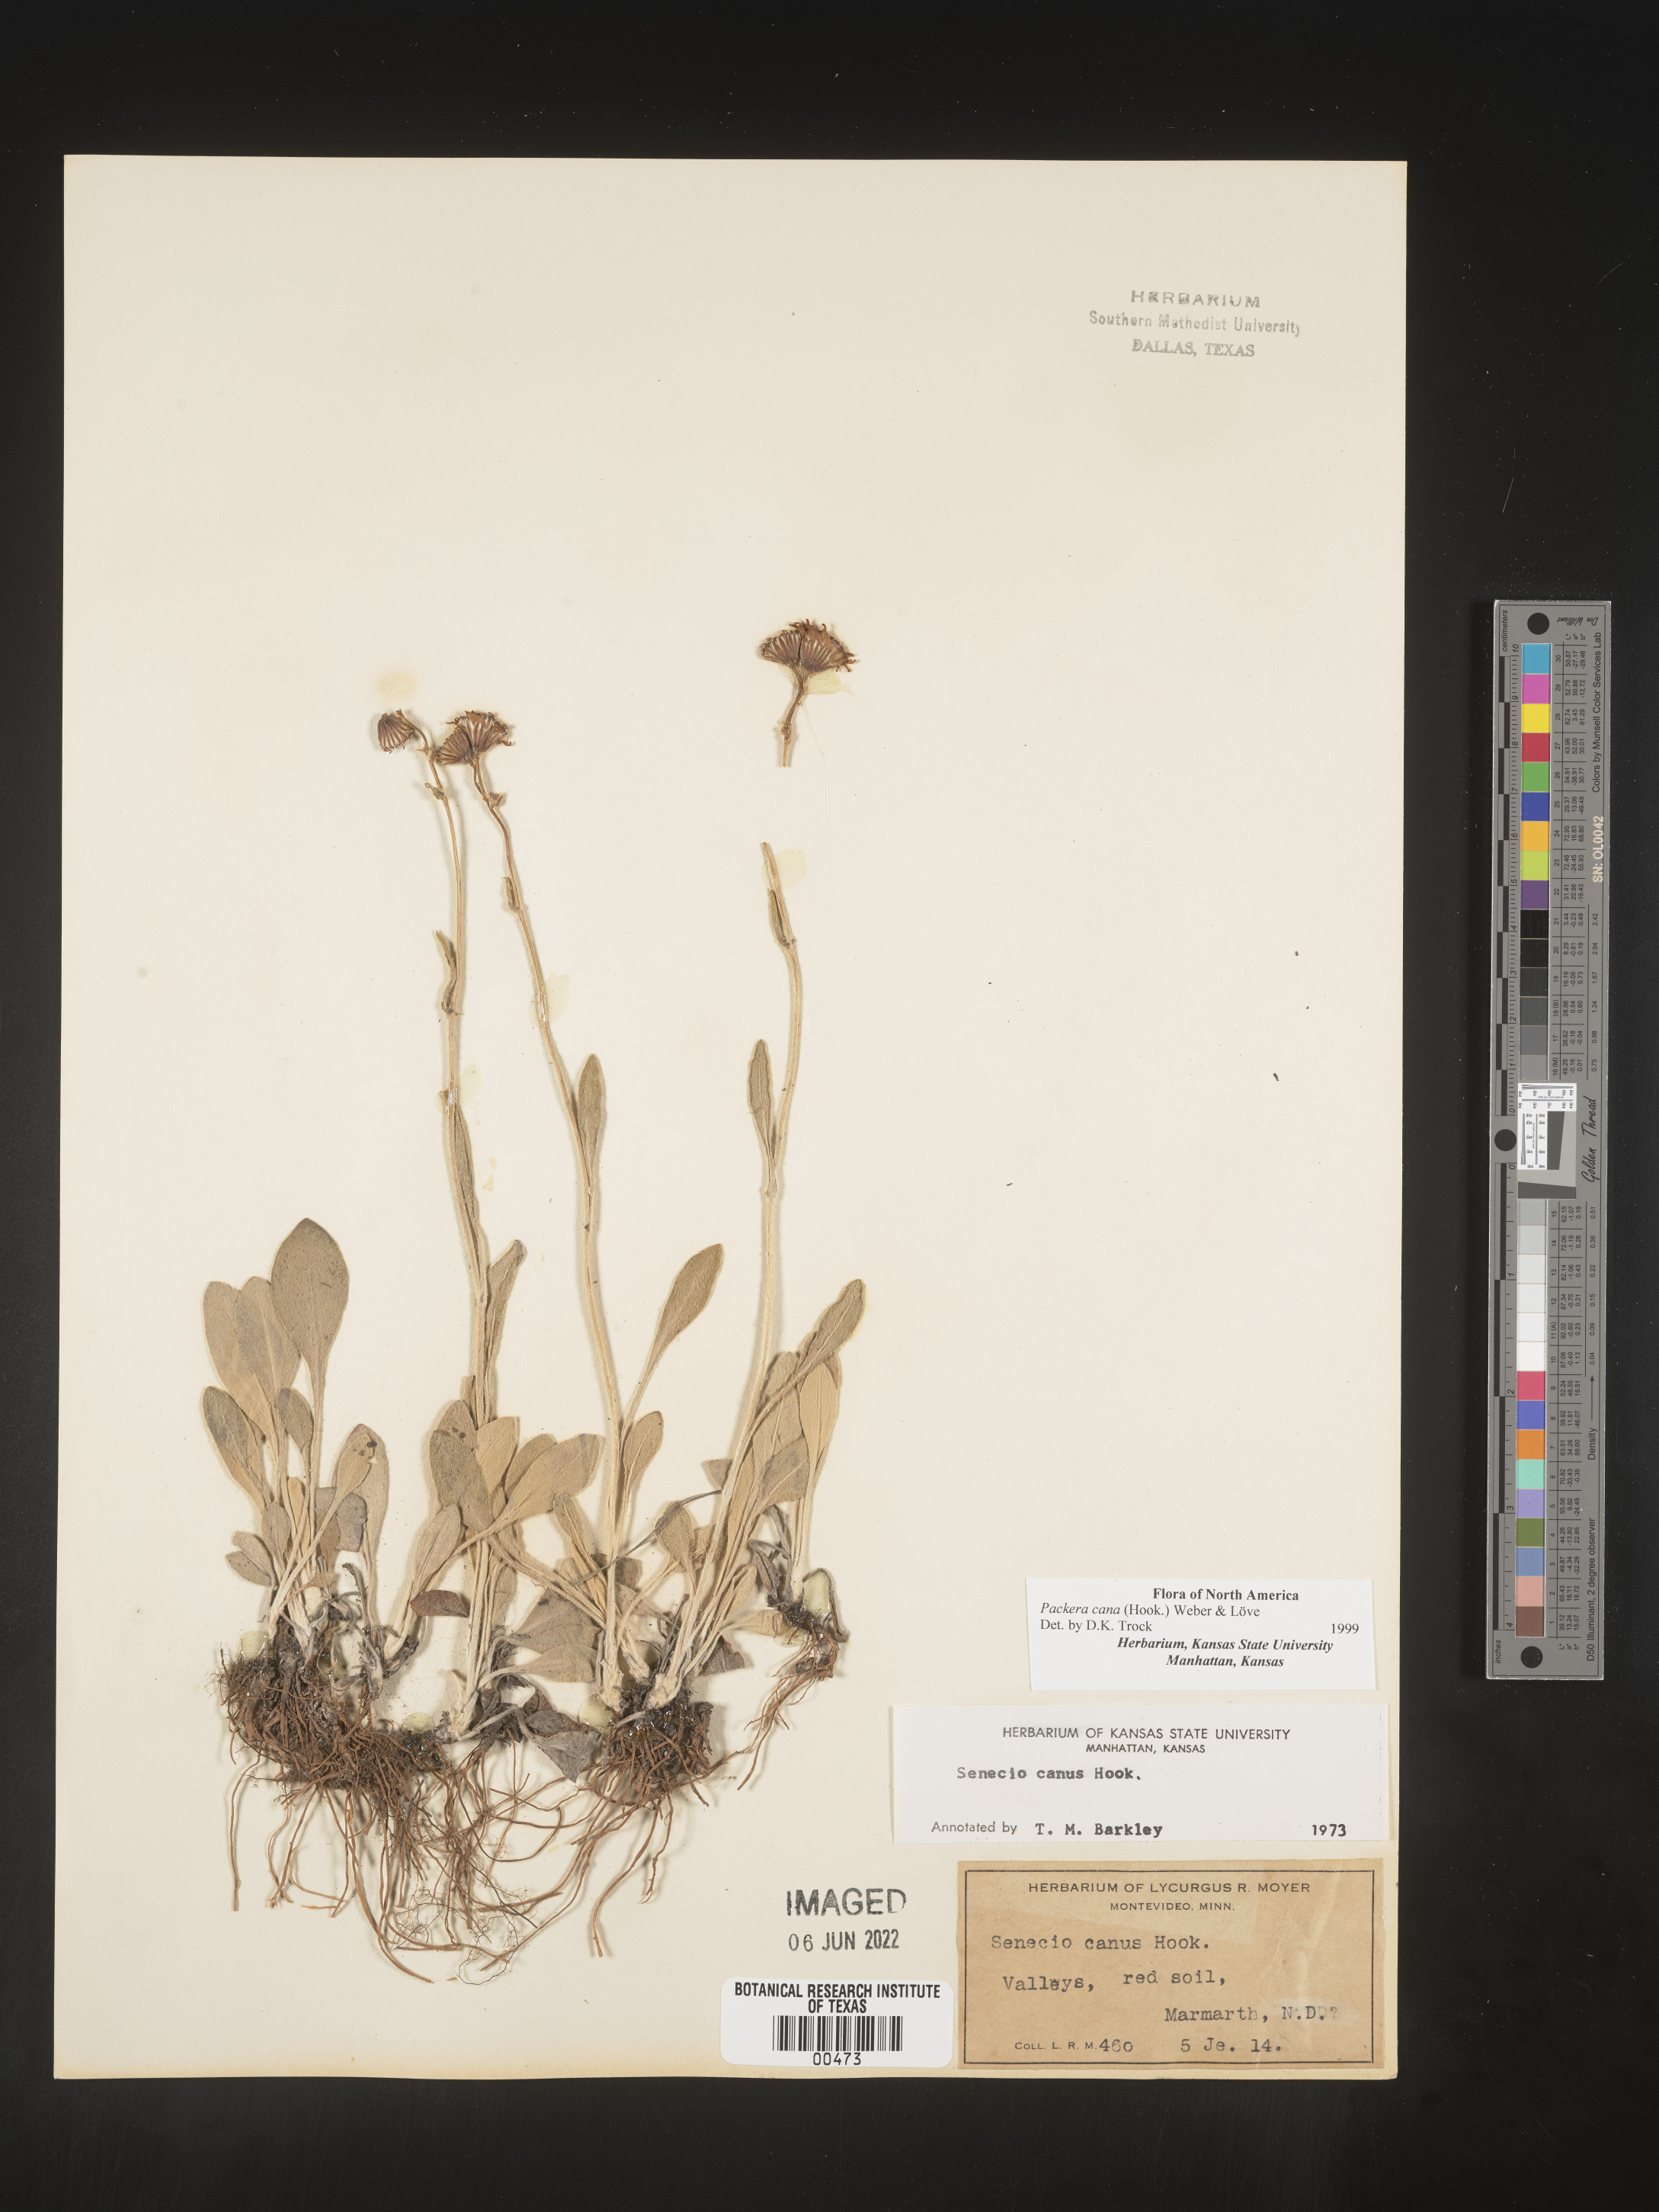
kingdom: Plantae
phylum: Tracheophyta
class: Magnoliopsida
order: Asterales
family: Asteraceae
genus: Packera
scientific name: Packera cana
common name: Woolly groundsel
